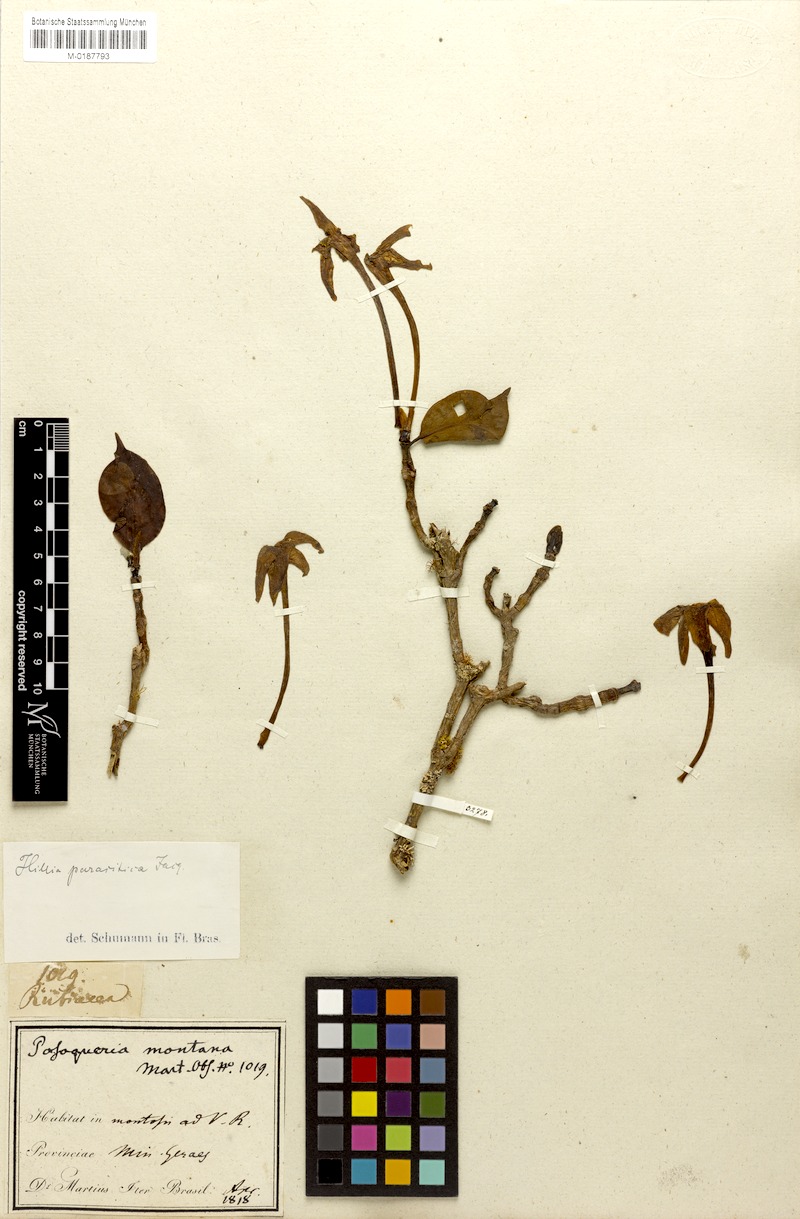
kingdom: Plantae
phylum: Tracheophyta
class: Magnoliopsida
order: Gentianales
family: Rubiaceae
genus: Hillia
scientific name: Hillia parasitica
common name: Morning star
